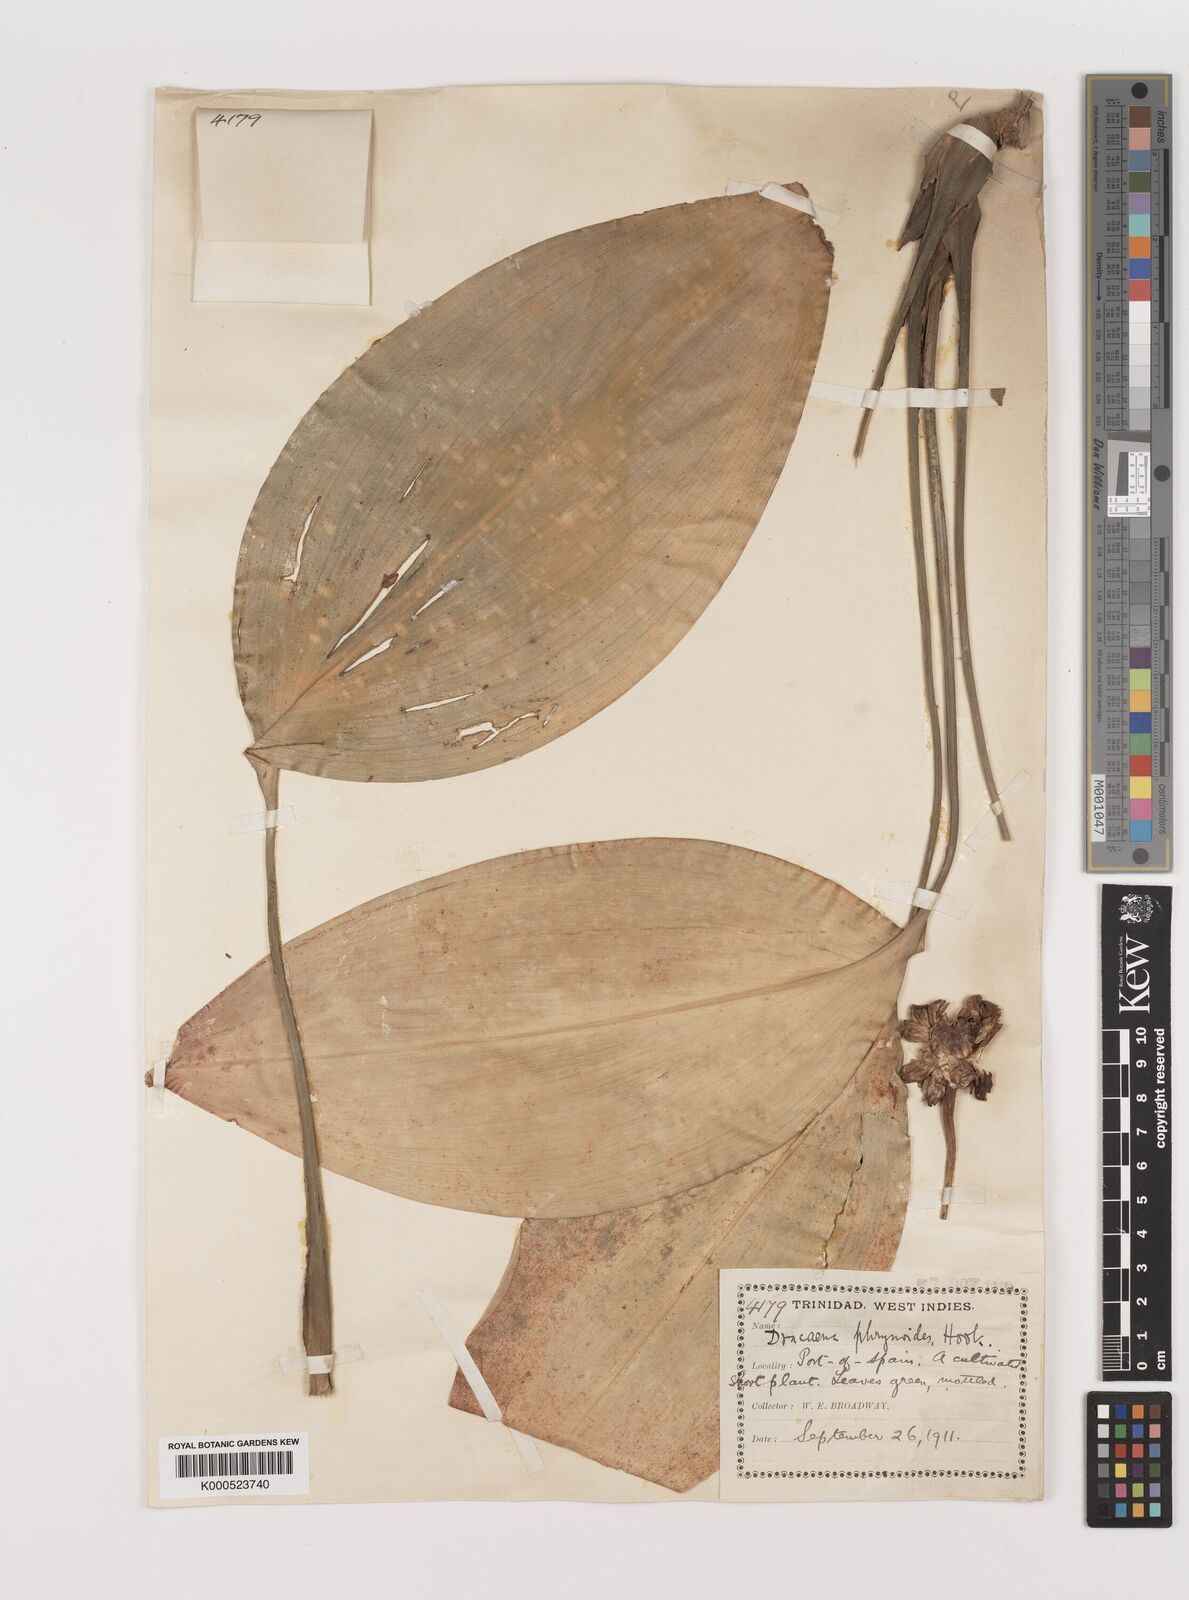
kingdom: Plantae
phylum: Tracheophyta
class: Liliopsida
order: Asparagales
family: Asparagaceae
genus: Dracaena
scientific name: Dracaena phrynioides
